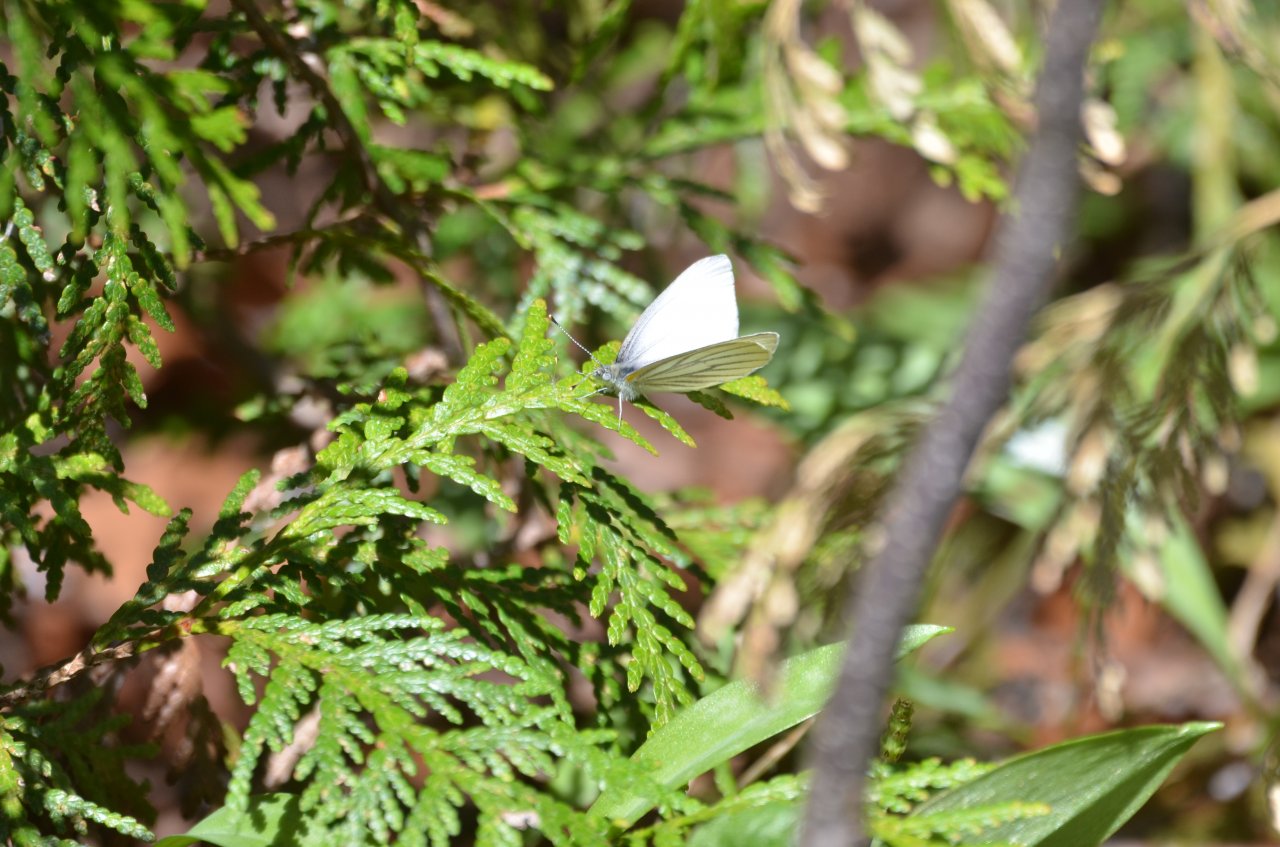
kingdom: Animalia
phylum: Arthropoda
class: Insecta
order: Lepidoptera
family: Pieridae
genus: Pieris
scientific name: Pieris oleracea
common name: Mustard White
